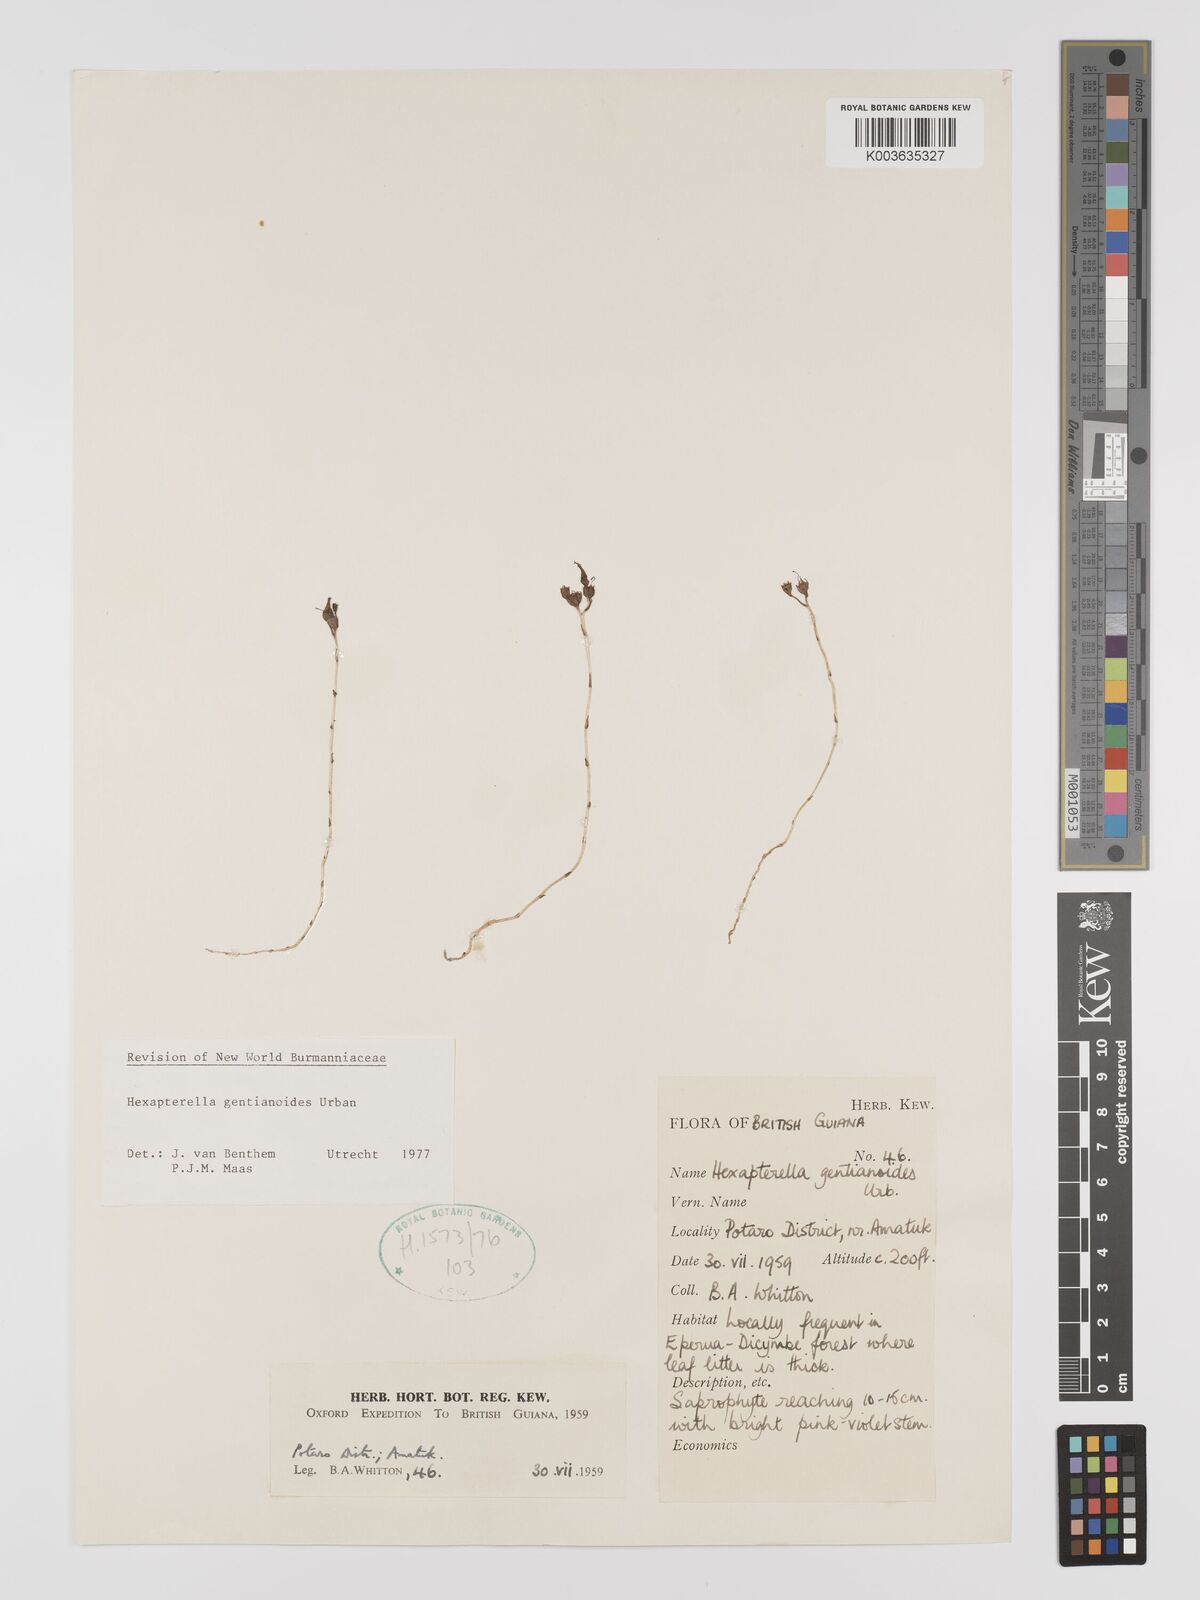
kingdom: Plantae
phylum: Tracheophyta
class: Liliopsida
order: Dioscoreales
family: Burmanniaceae
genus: Hexapterella
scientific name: Hexapterella gentianoides
